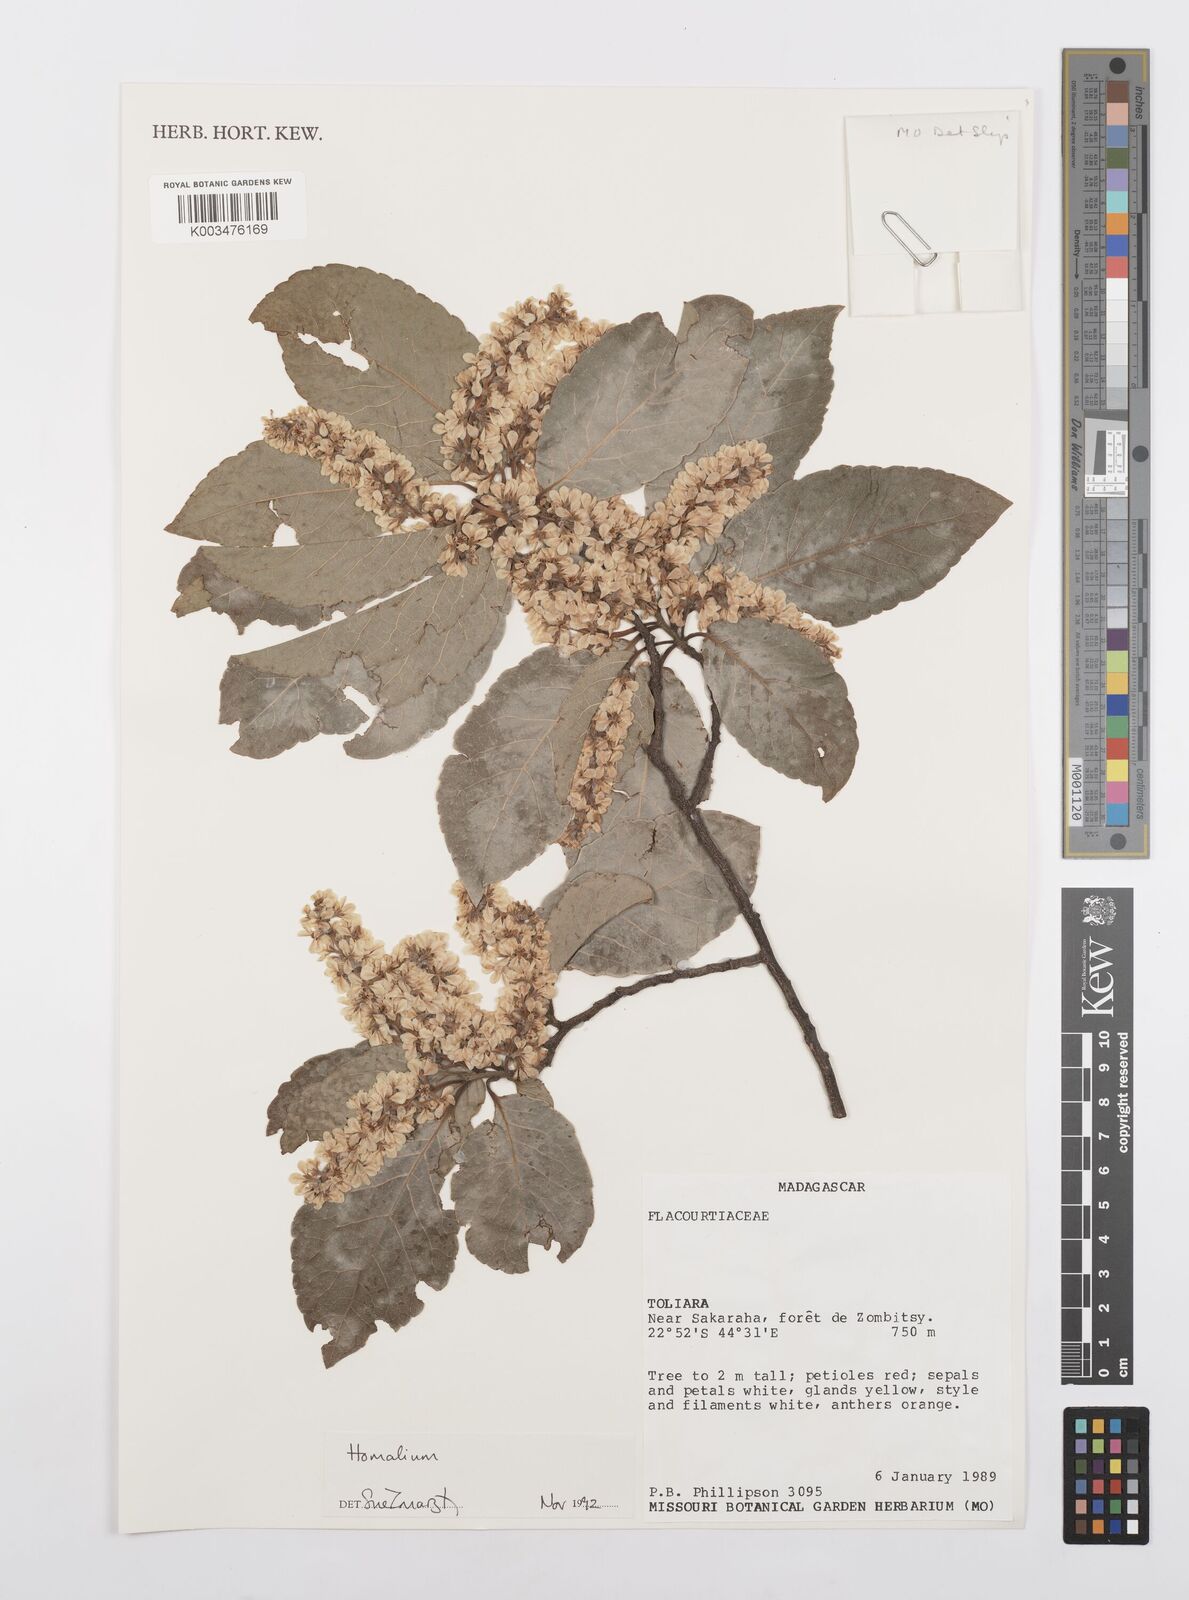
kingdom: Plantae
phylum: Tracheophyta
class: Magnoliopsida
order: Malpighiales
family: Salicaceae
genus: Homalium
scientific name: Homalium
